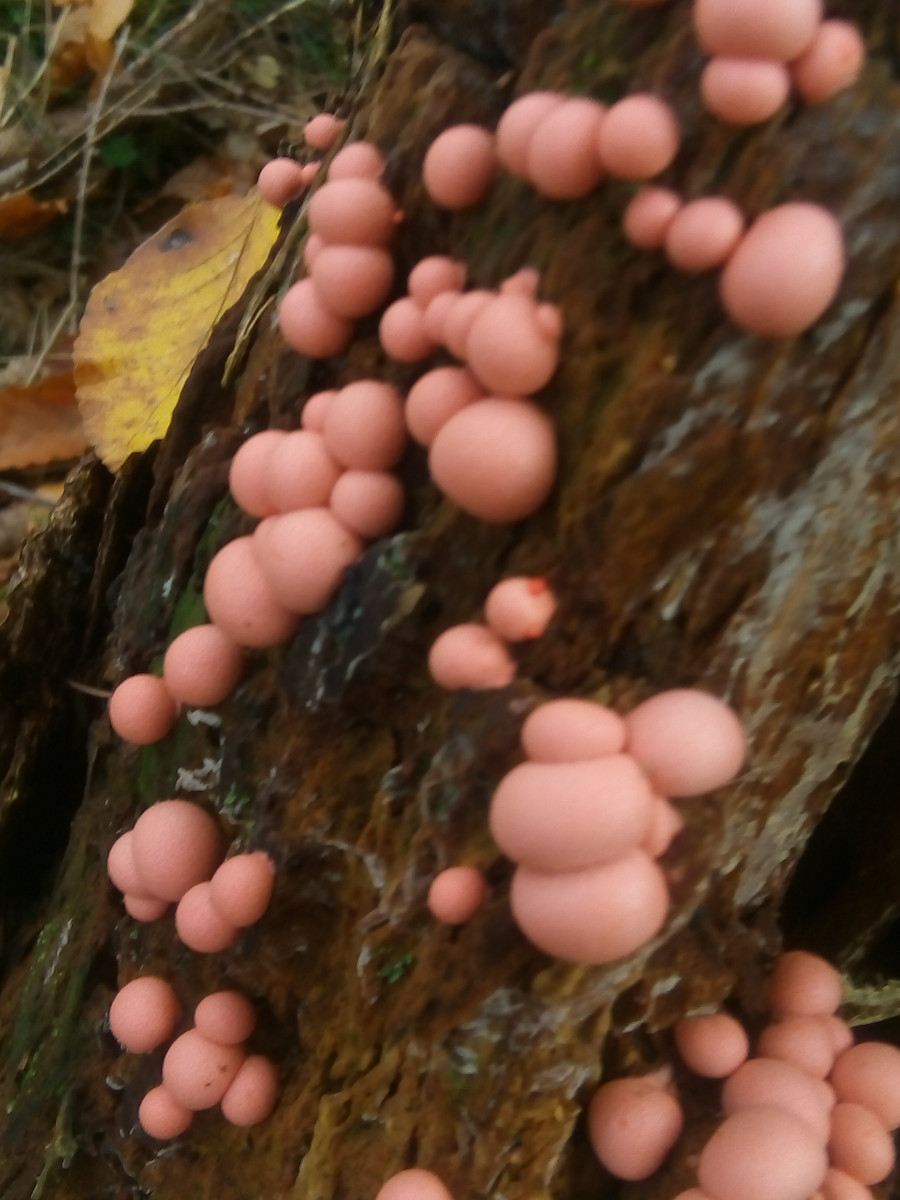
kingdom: Protozoa
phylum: Mycetozoa
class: Myxomycetes
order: Cribrariales
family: Tubiferaceae
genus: Lycogala
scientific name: Lycogala epidendrum
